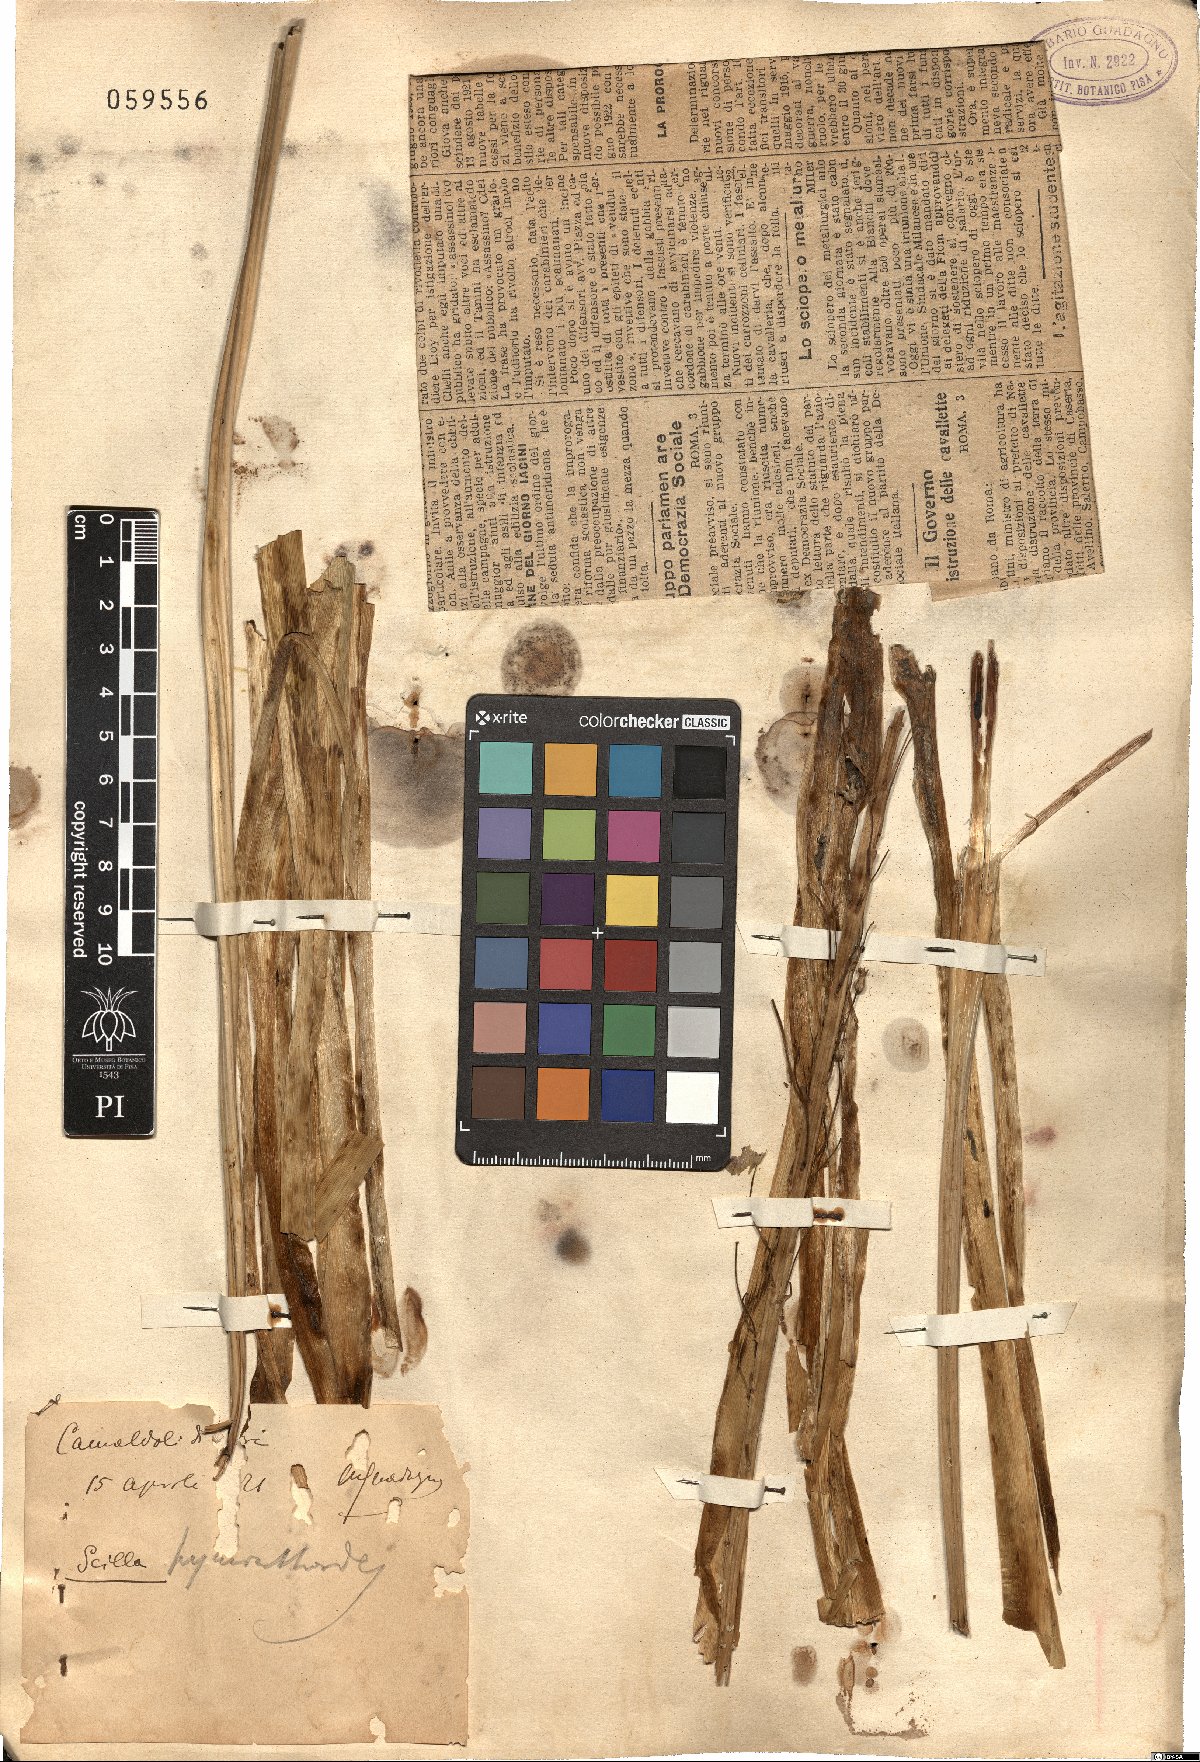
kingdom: Plantae
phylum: Tracheophyta
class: Liliopsida
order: Asparagales
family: Asparagaceae
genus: Scilla
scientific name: Scilla hyacinthoides
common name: Scilla
